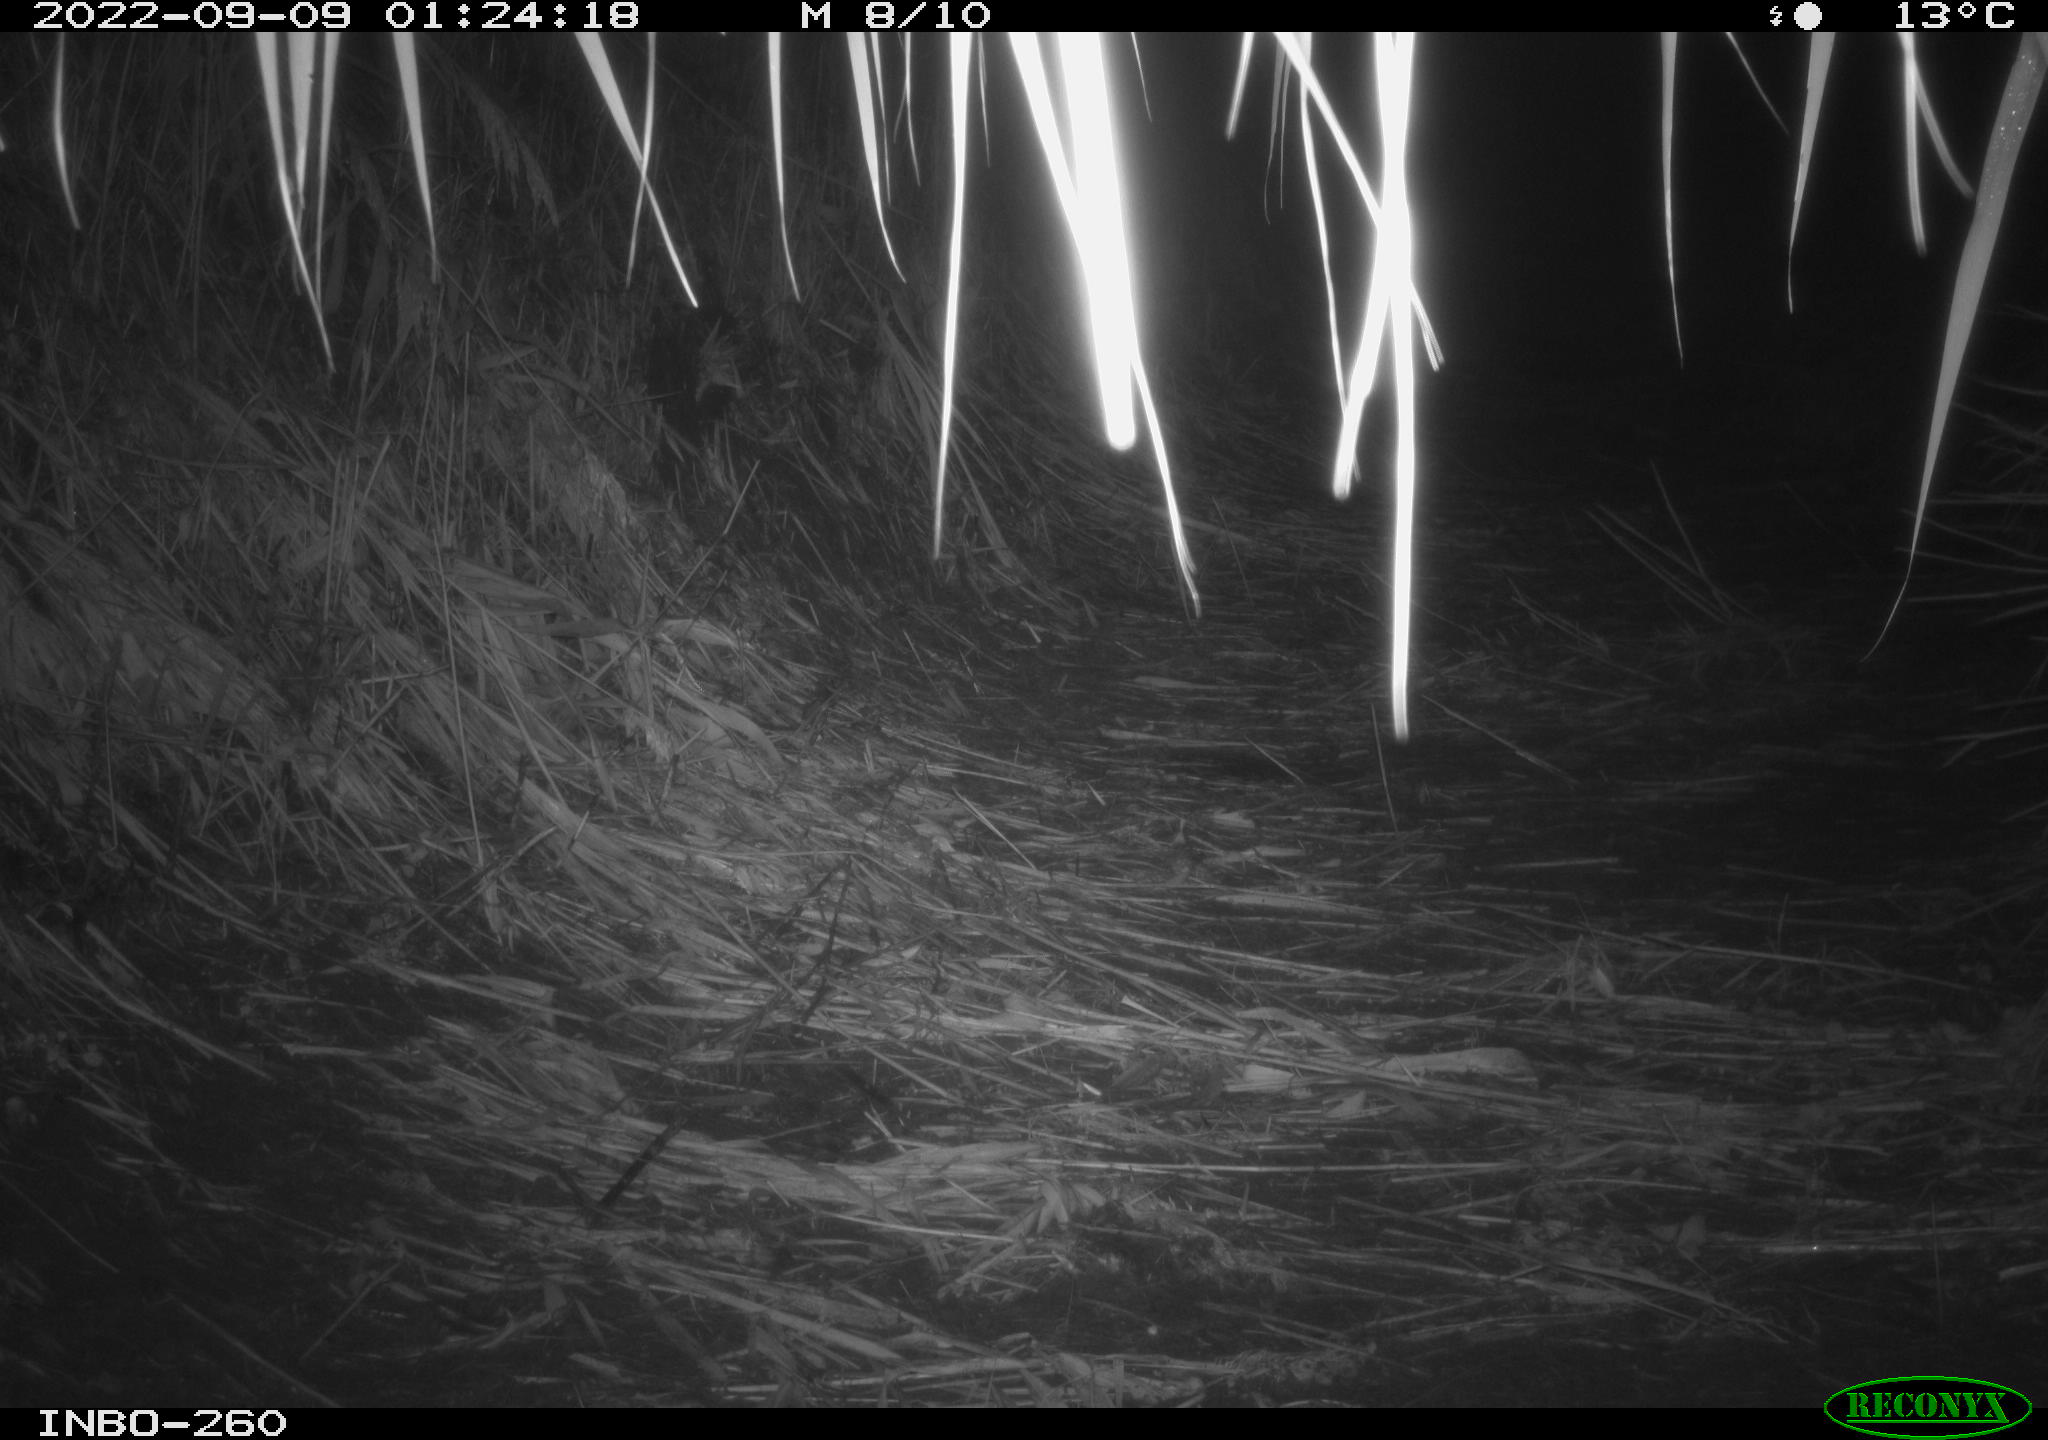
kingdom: Animalia
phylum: Chordata
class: Mammalia
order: Carnivora
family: Mustelidae
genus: Martes
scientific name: Martes
